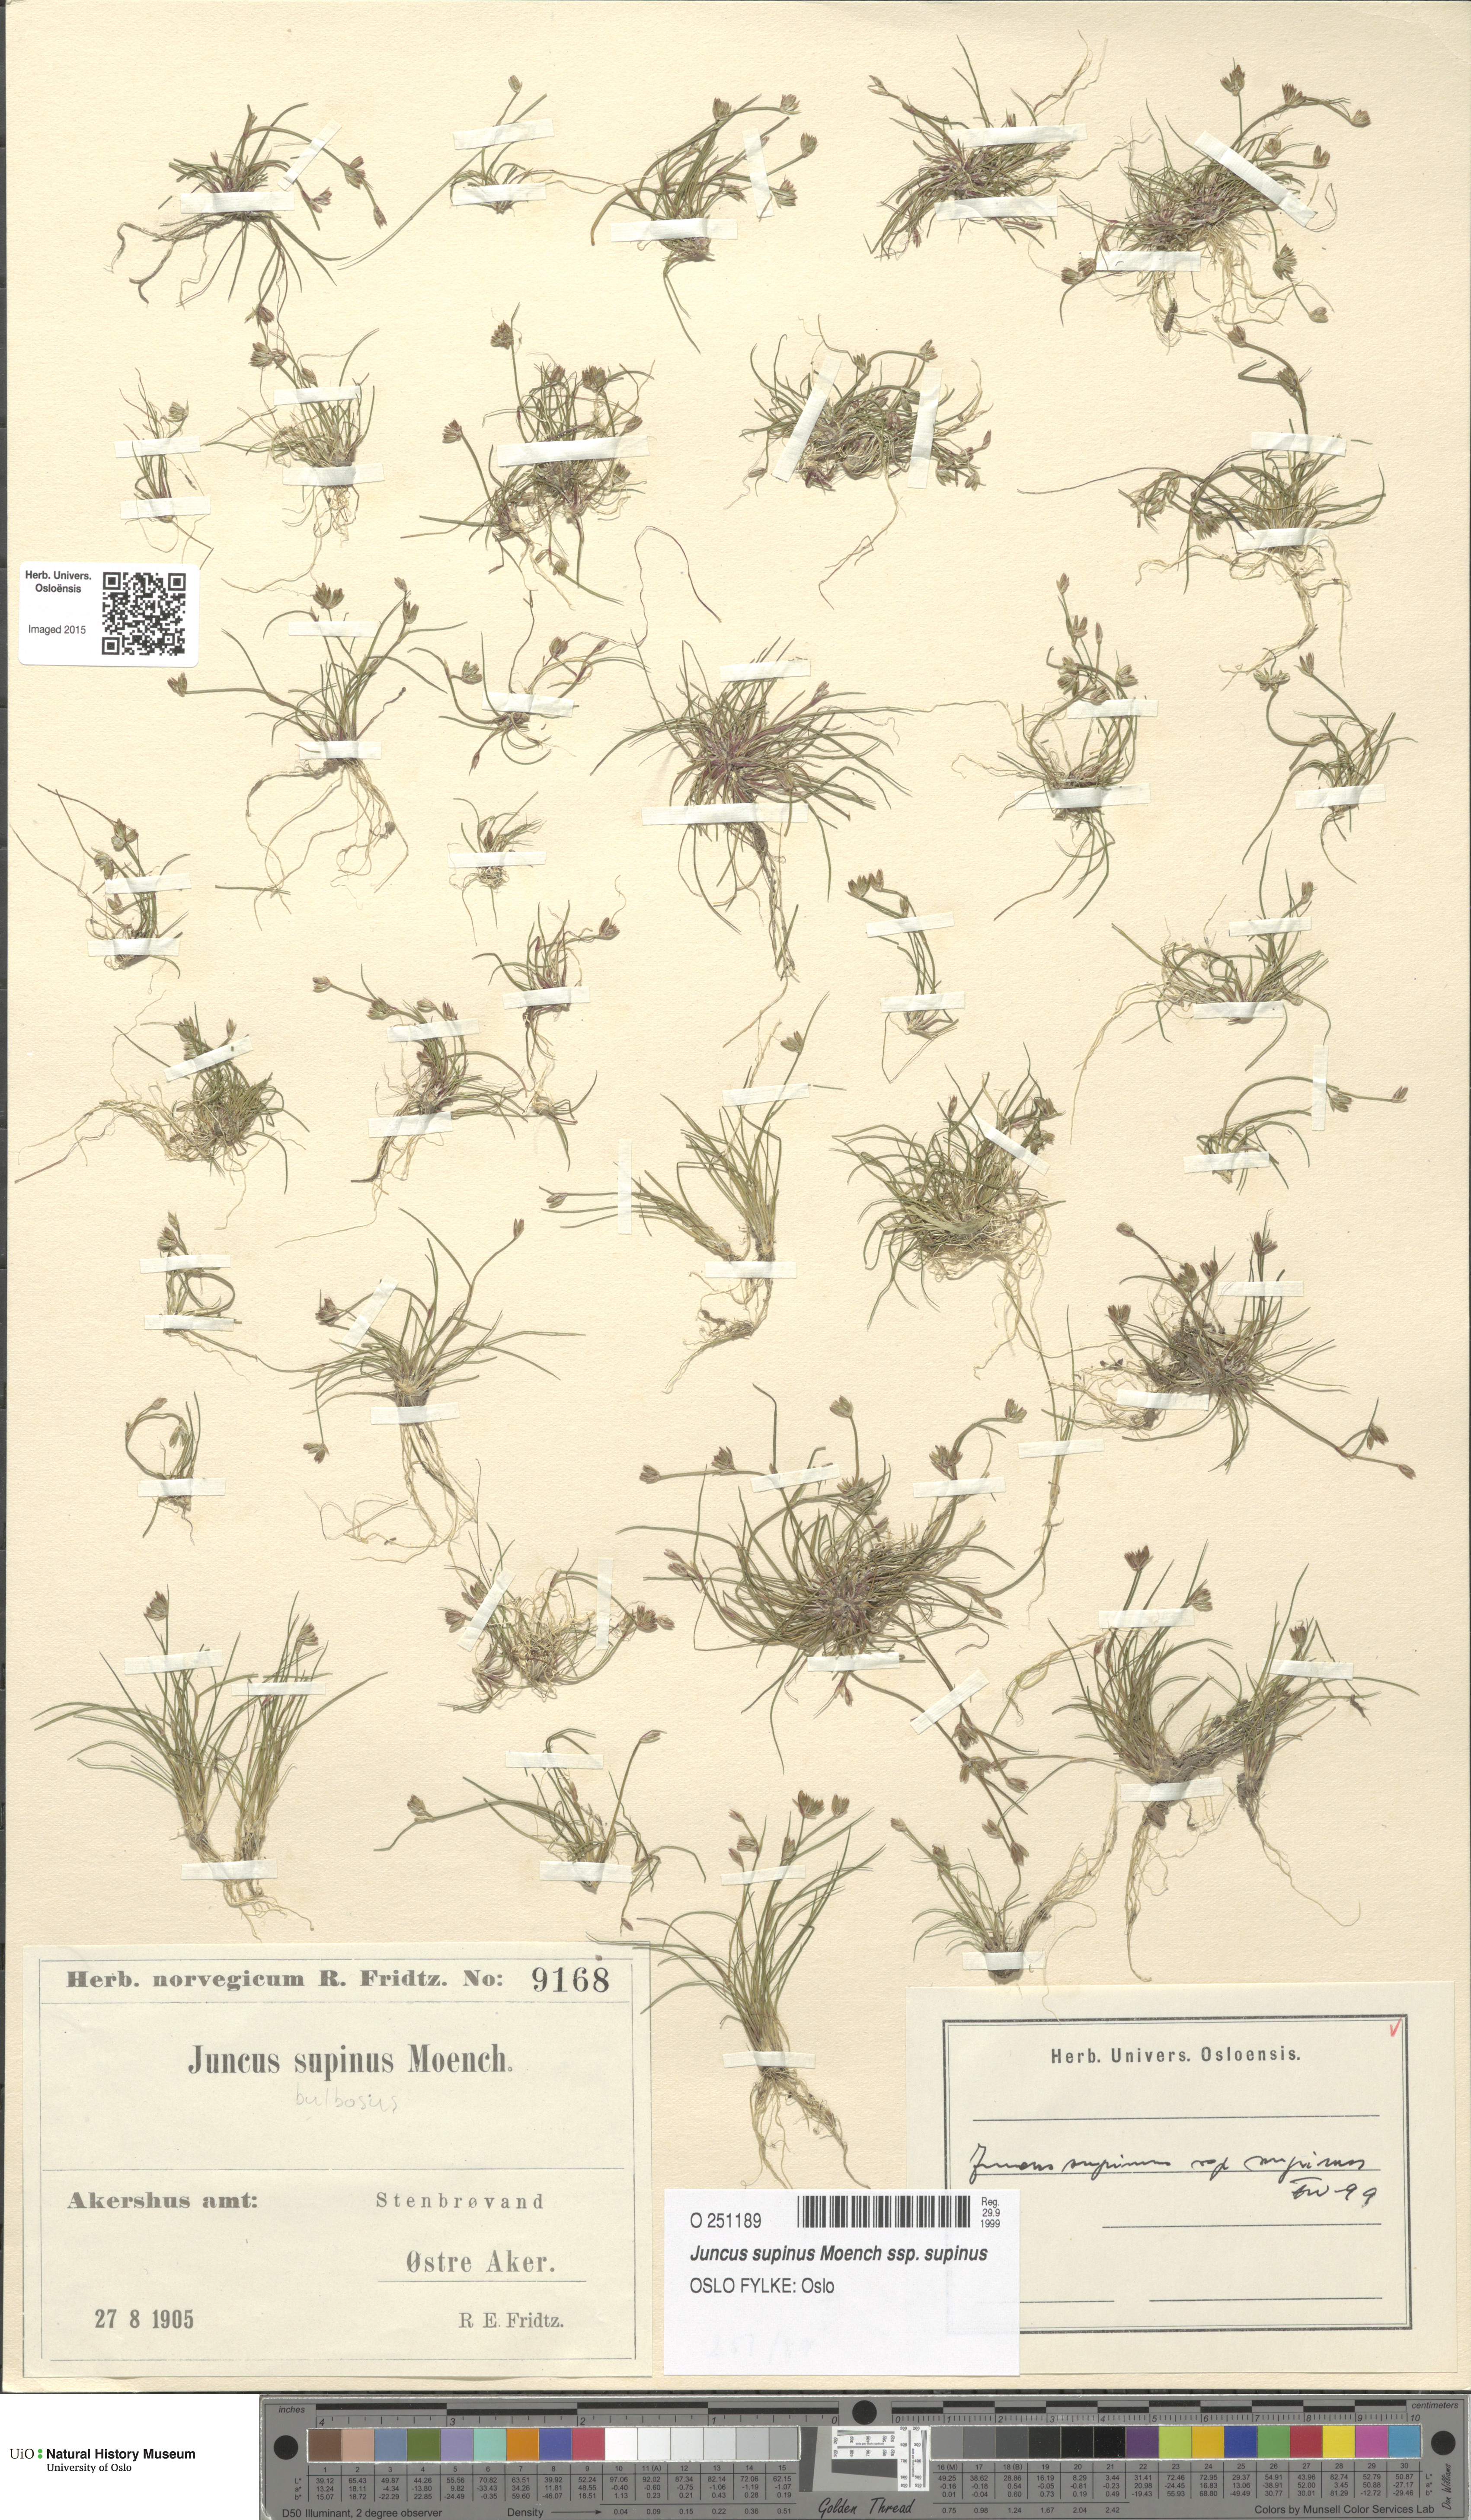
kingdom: Plantae
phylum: Tracheophyta
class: Liliopsida
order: Poales
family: Juncaceae
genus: Juncus
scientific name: Juncus bulbosus
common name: Bulbous rush
